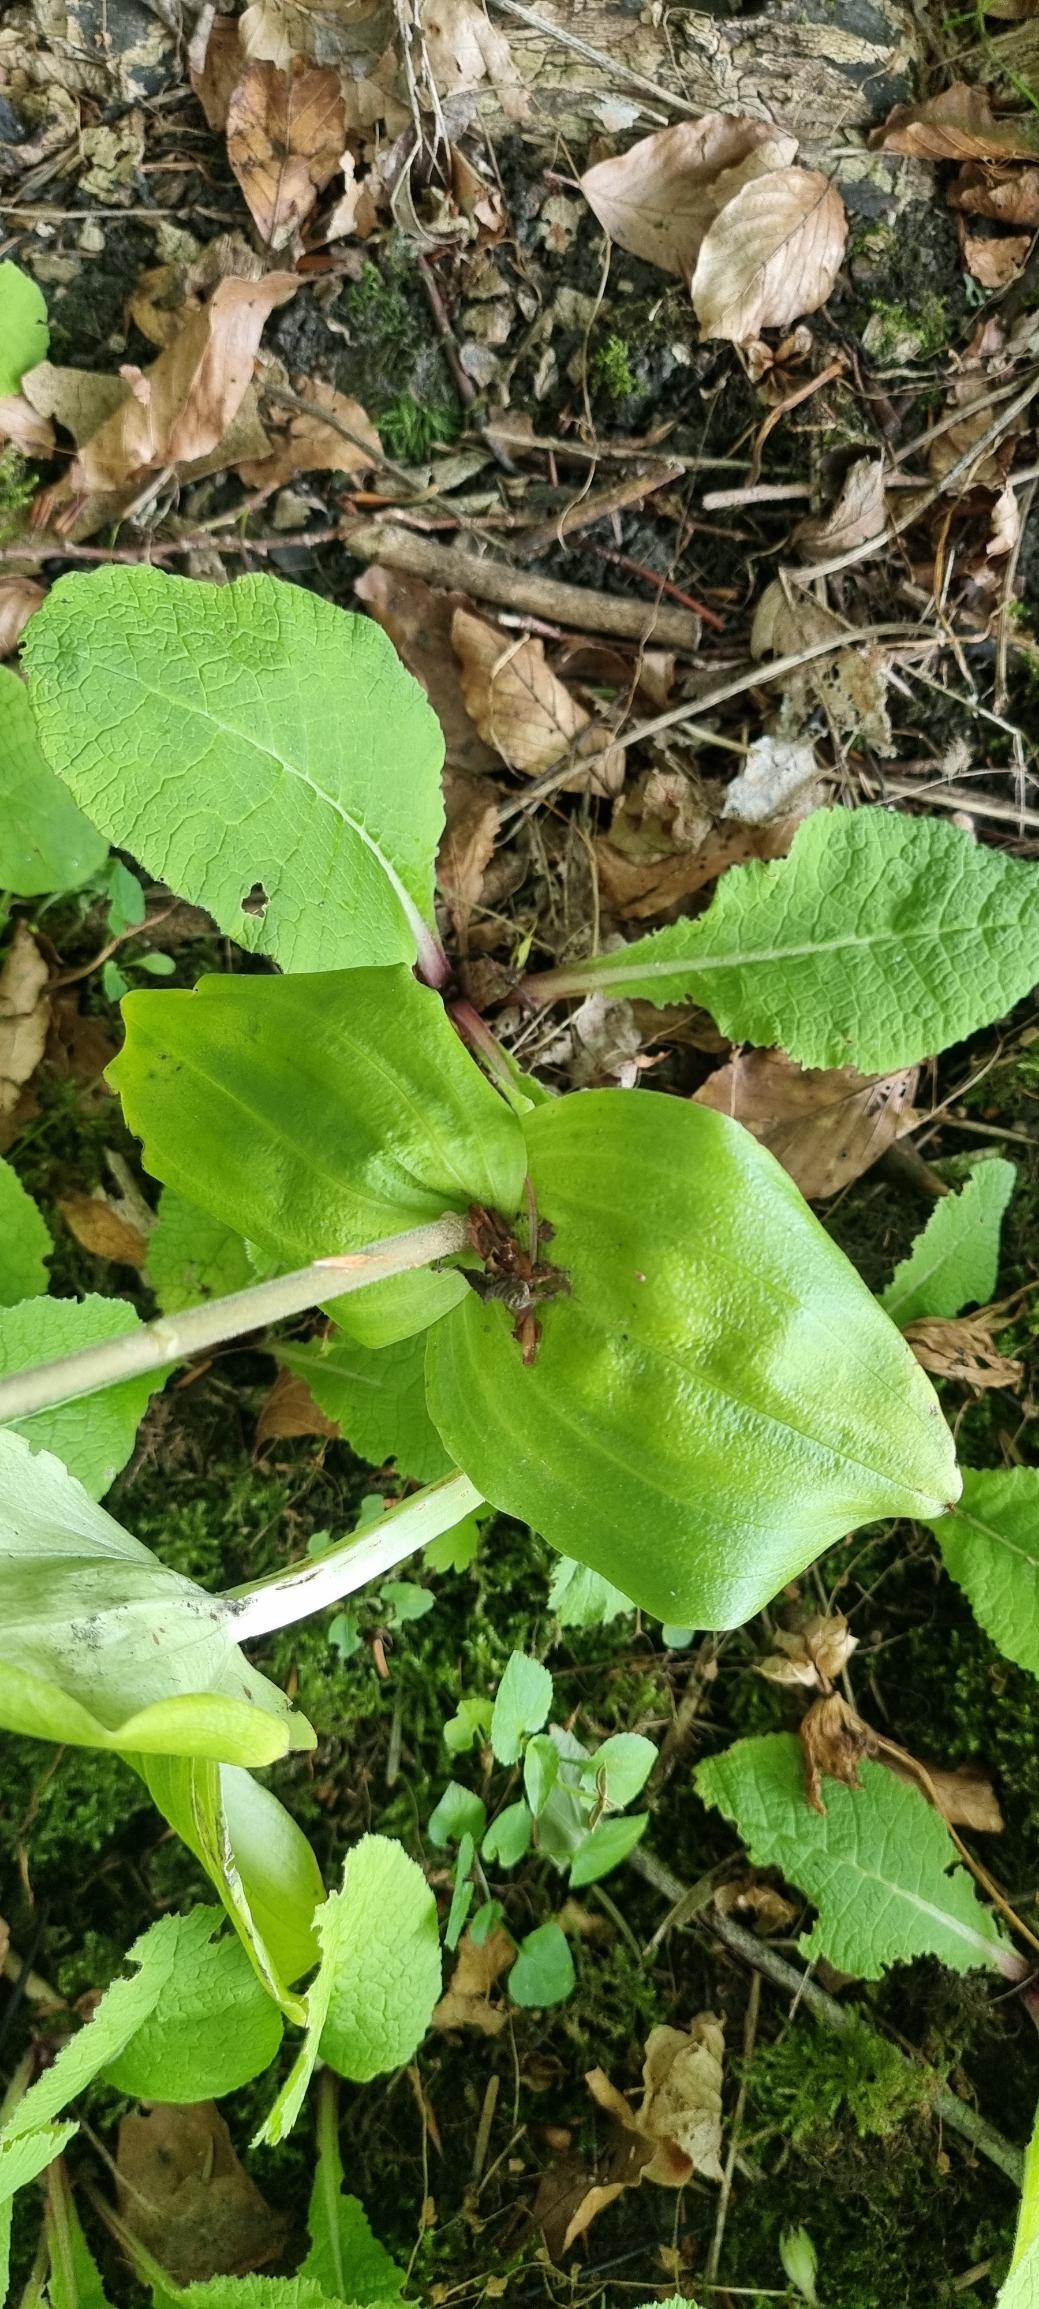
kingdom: Plantae
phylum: Tracheophyta
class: Liliopsida
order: Asparagales
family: Orchidaceae
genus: Neottia
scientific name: Neottia ovata
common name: Ægbladet fliglæbe
